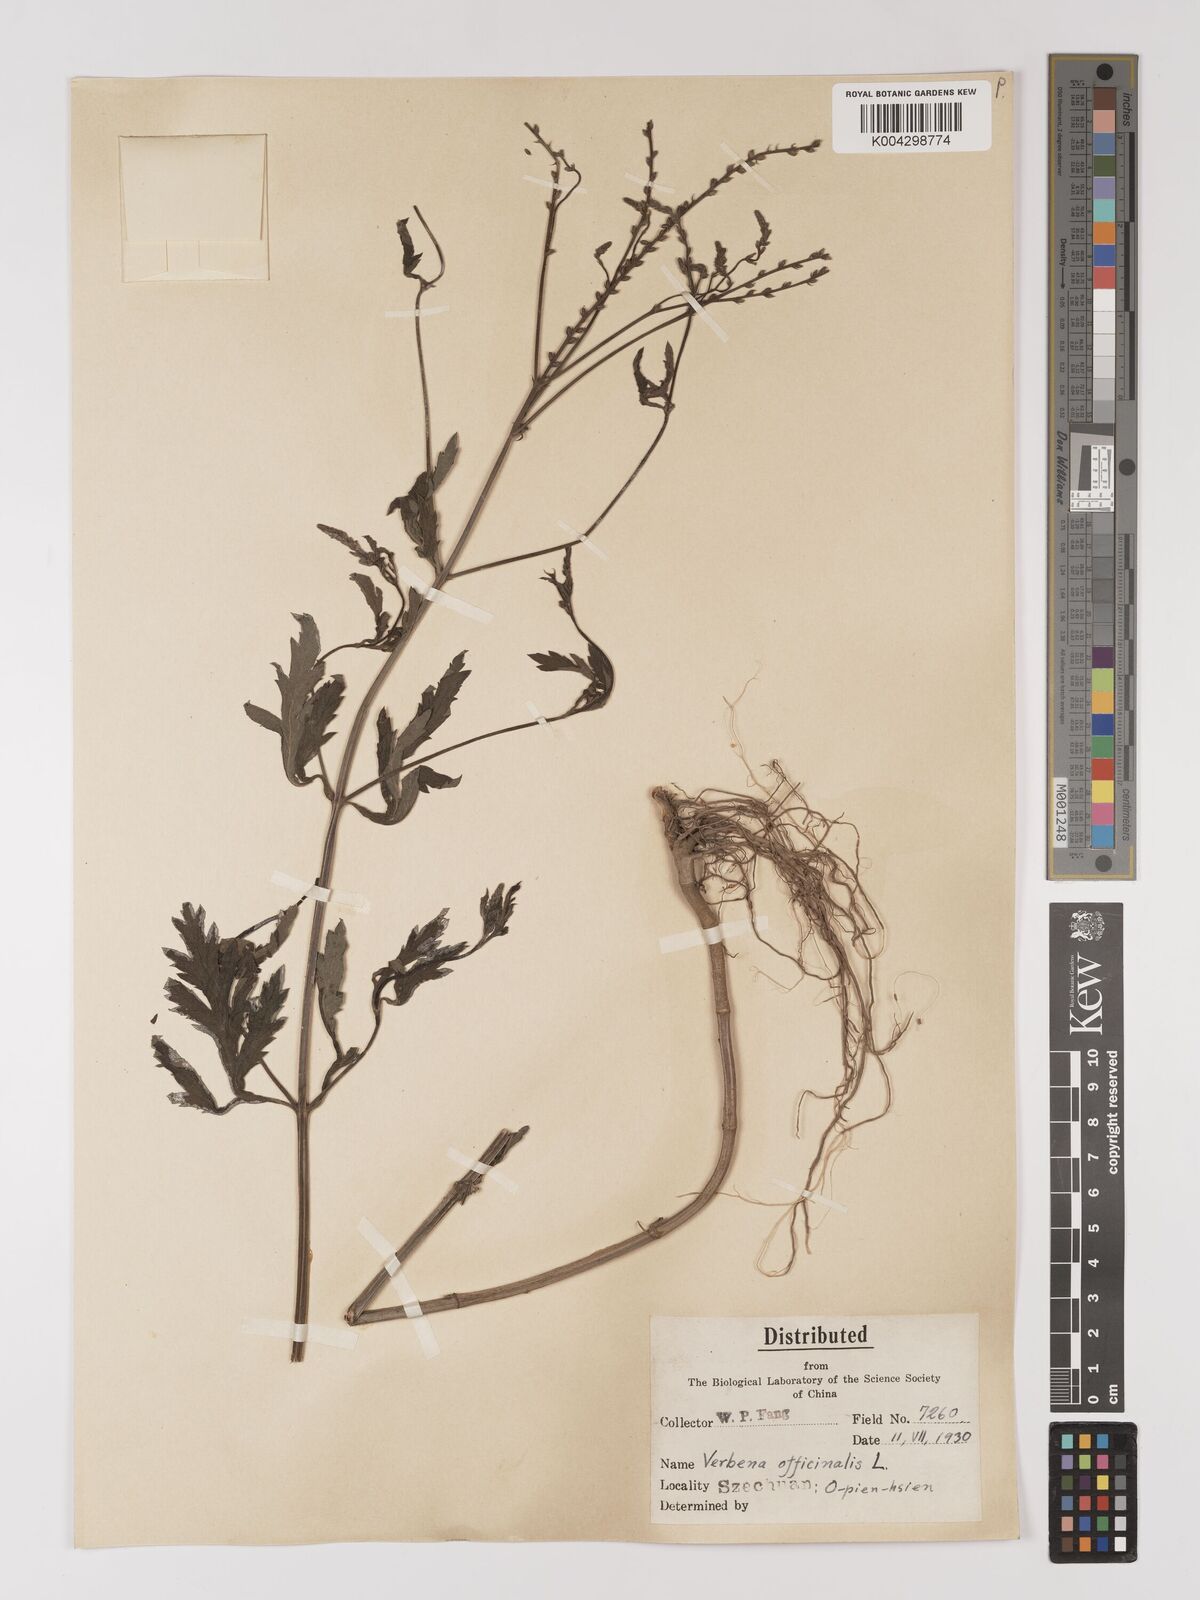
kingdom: Plantae
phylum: Tracheophyta
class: Magnoliopsida
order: Lamiales
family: Verbenaceae
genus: Verbena
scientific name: Verbena officinalis
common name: Vervain
